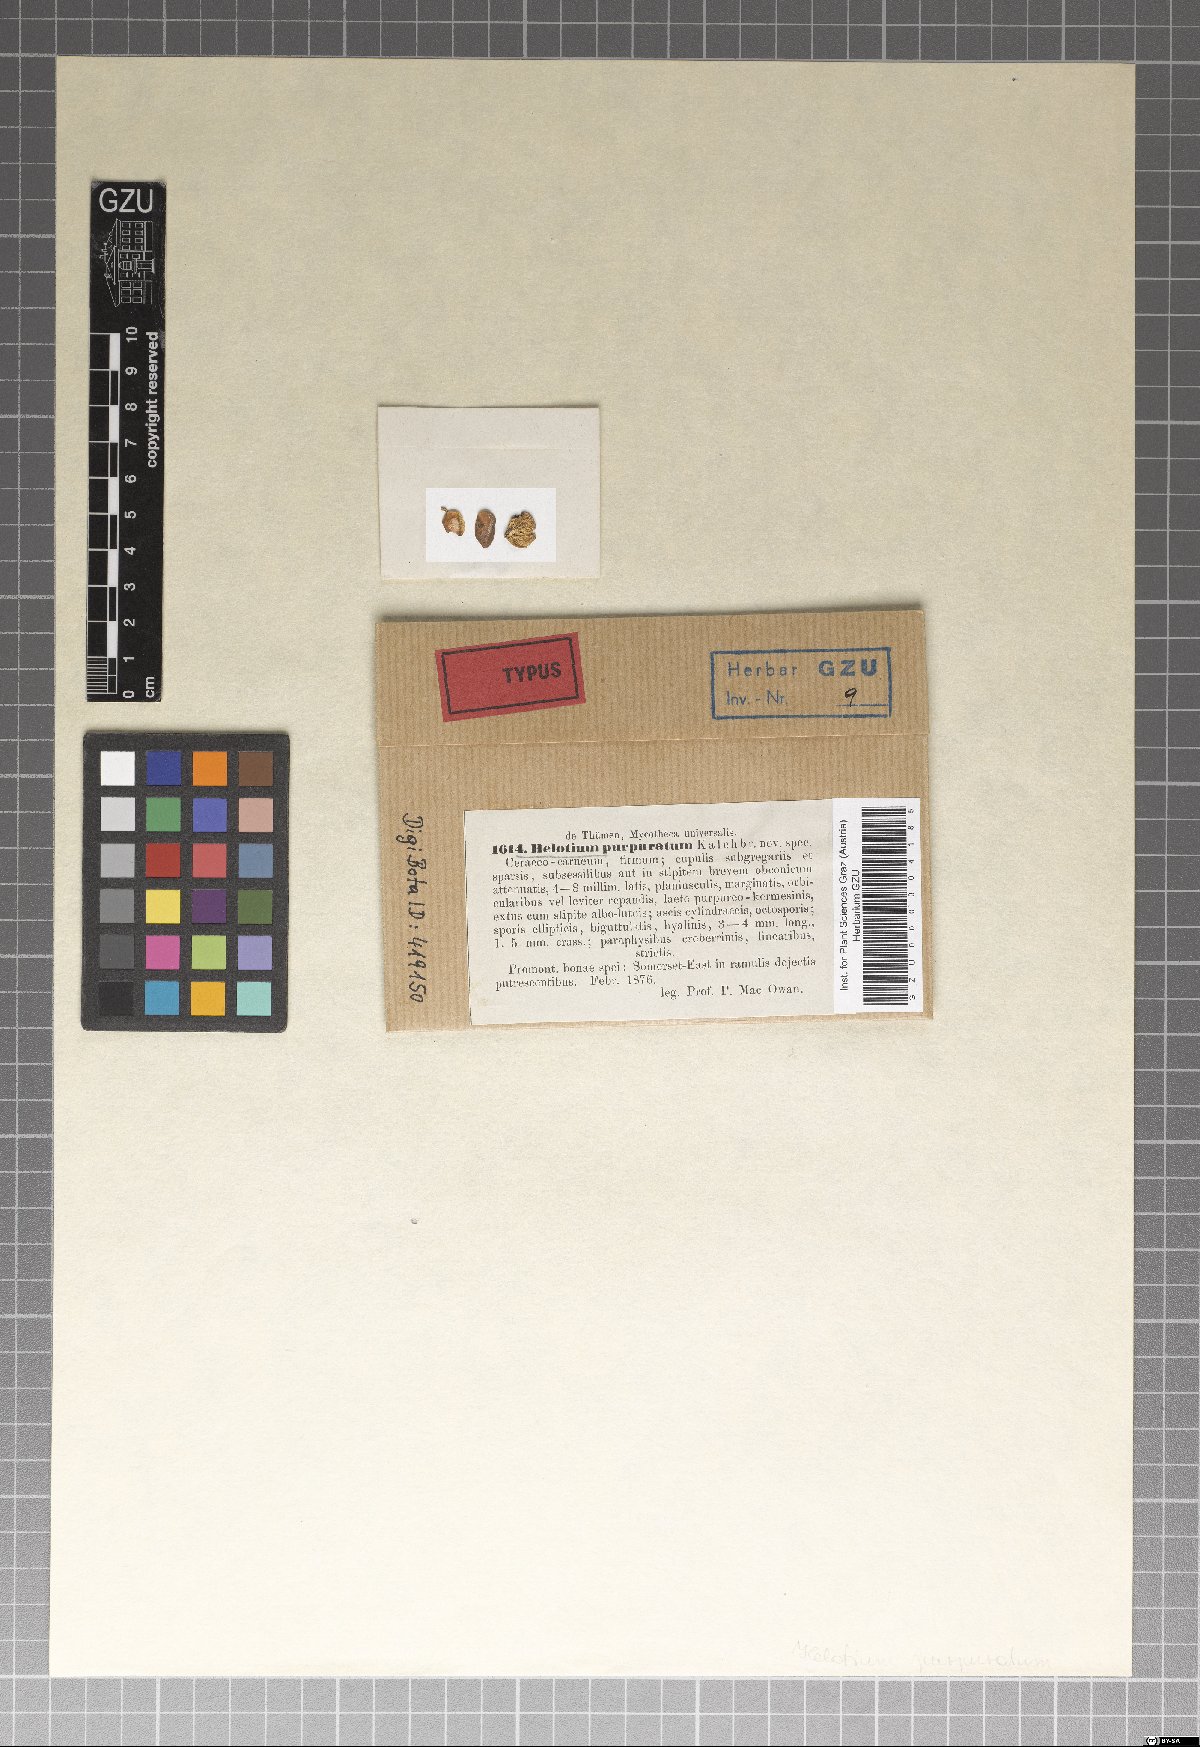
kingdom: Fungi
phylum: Ascomycota
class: Leotiomycetes
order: Helotiales
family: Tricladiaceae
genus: Helotium
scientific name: Helotium
